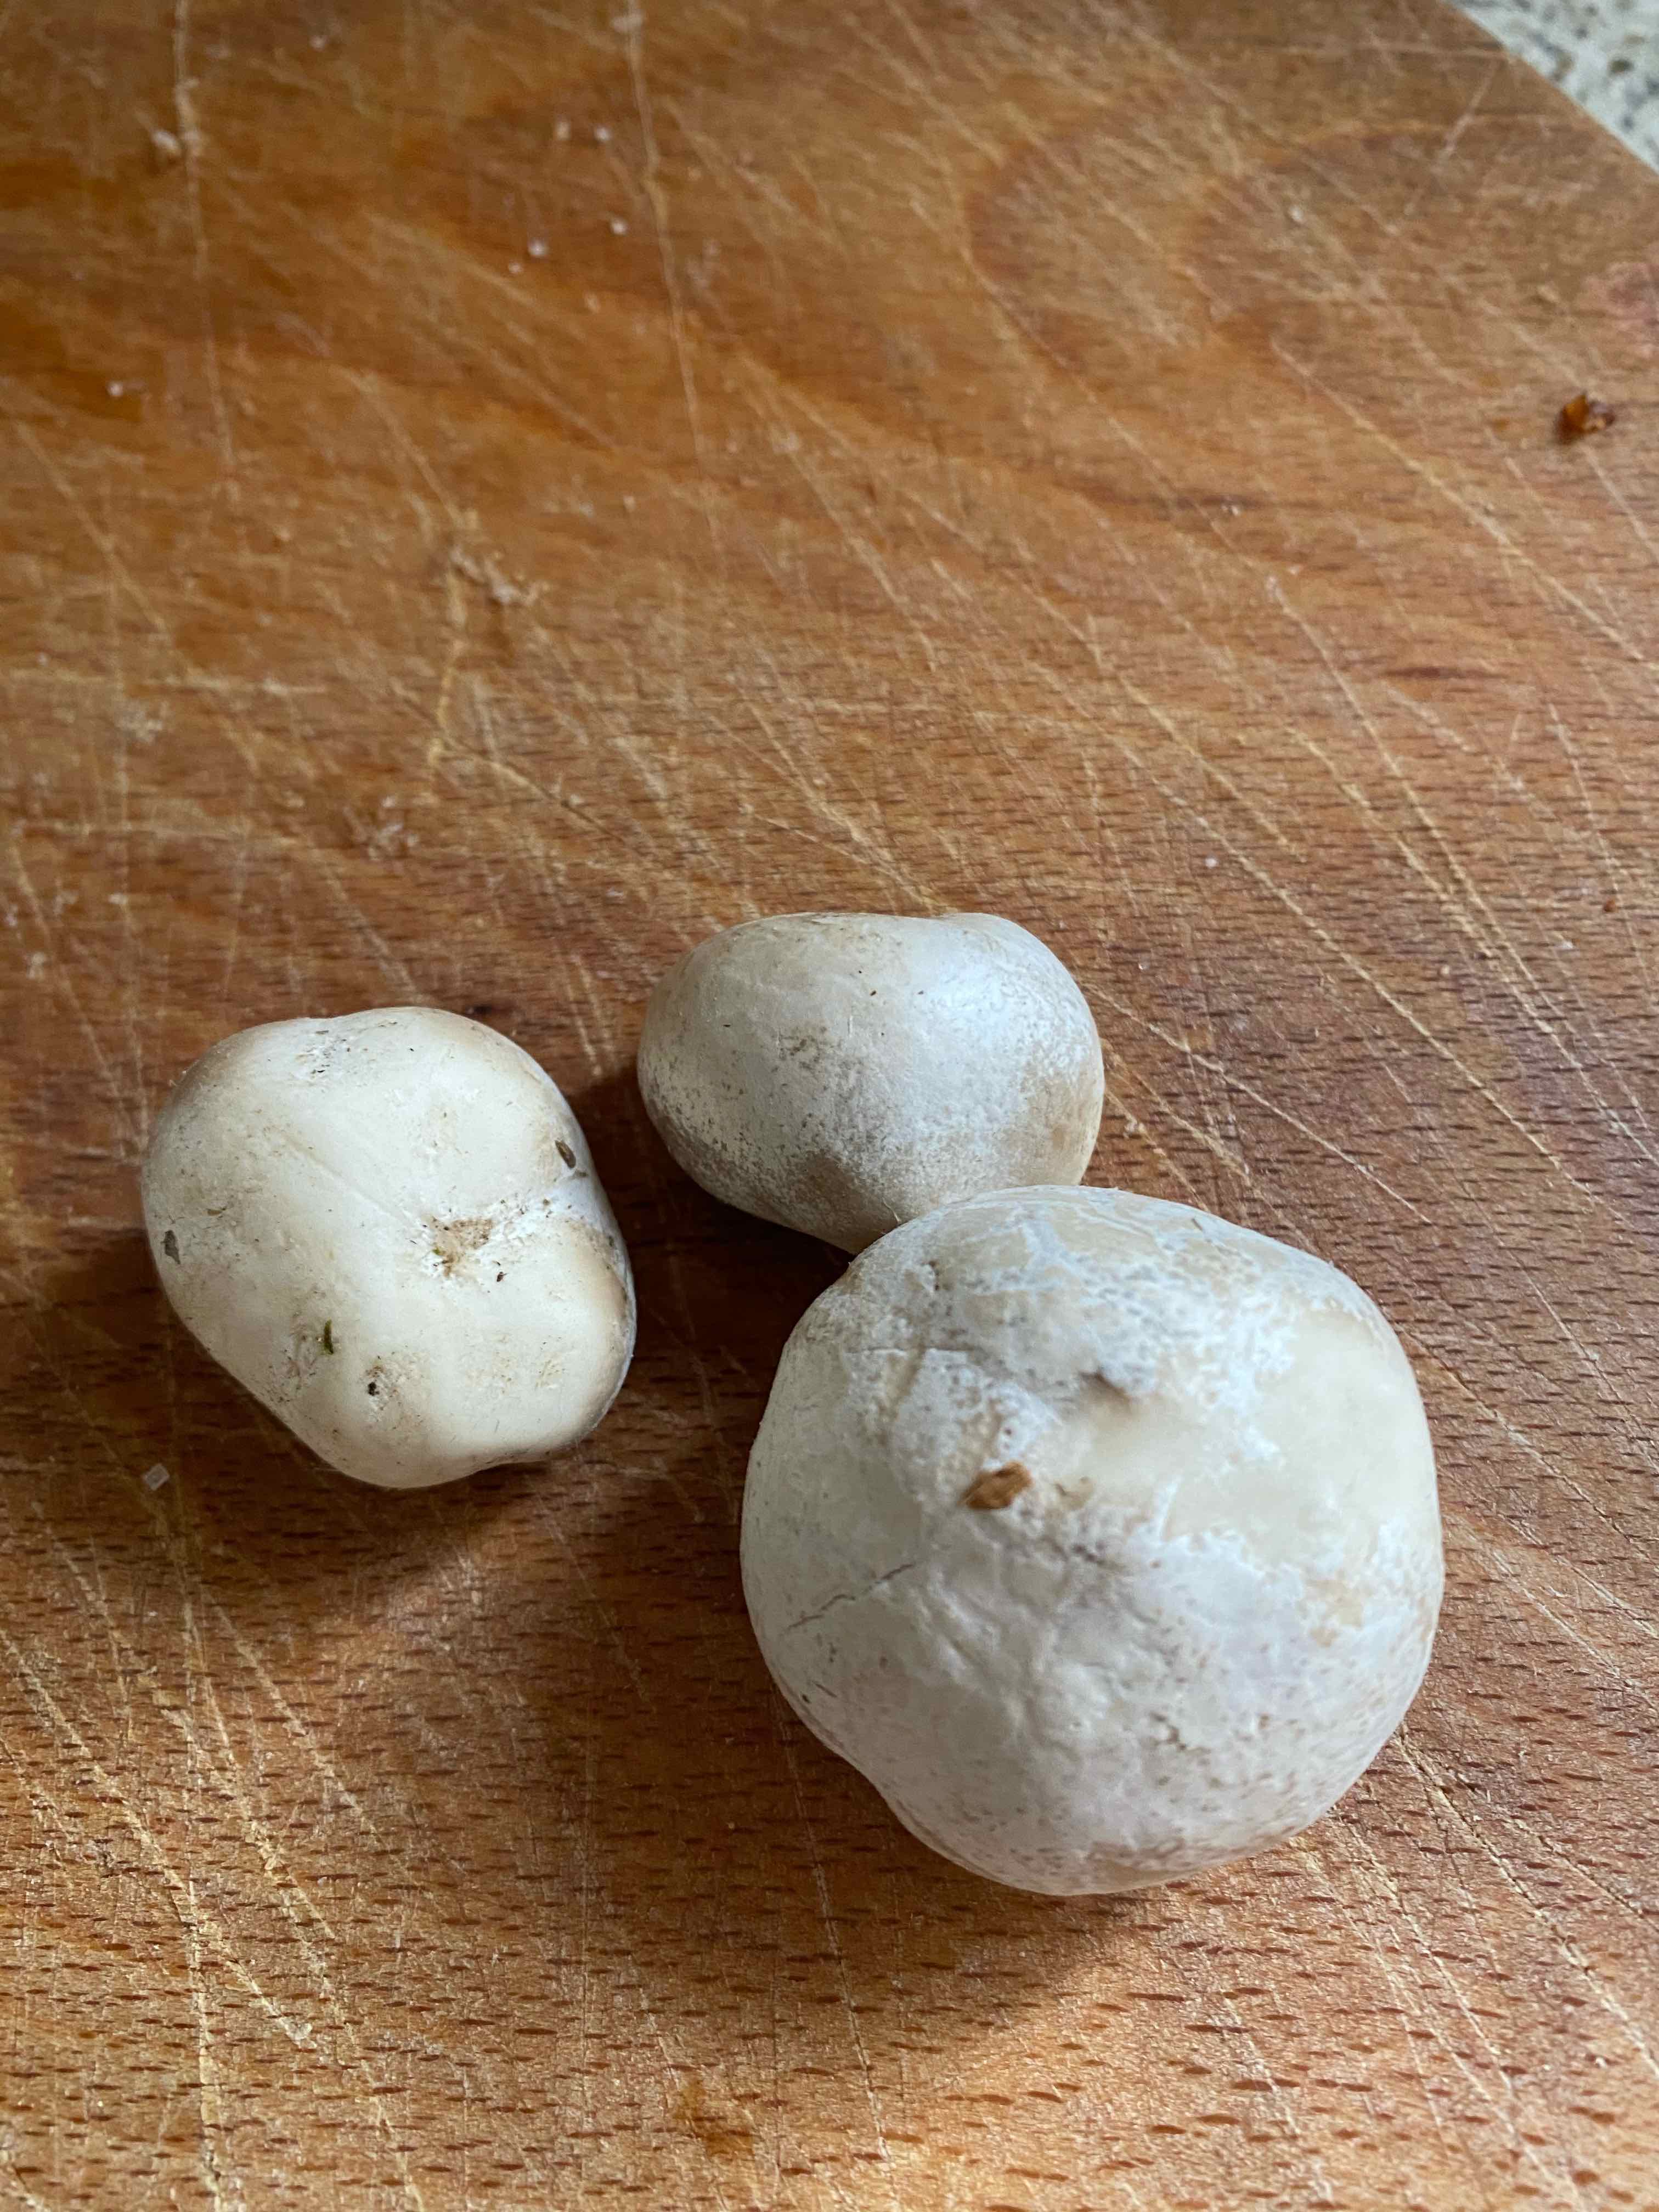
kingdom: Fungi
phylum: Basidiomycota
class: Agaricomycetes
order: Agaricales
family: Lycoperdaceae
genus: Bovista
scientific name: Bovista
